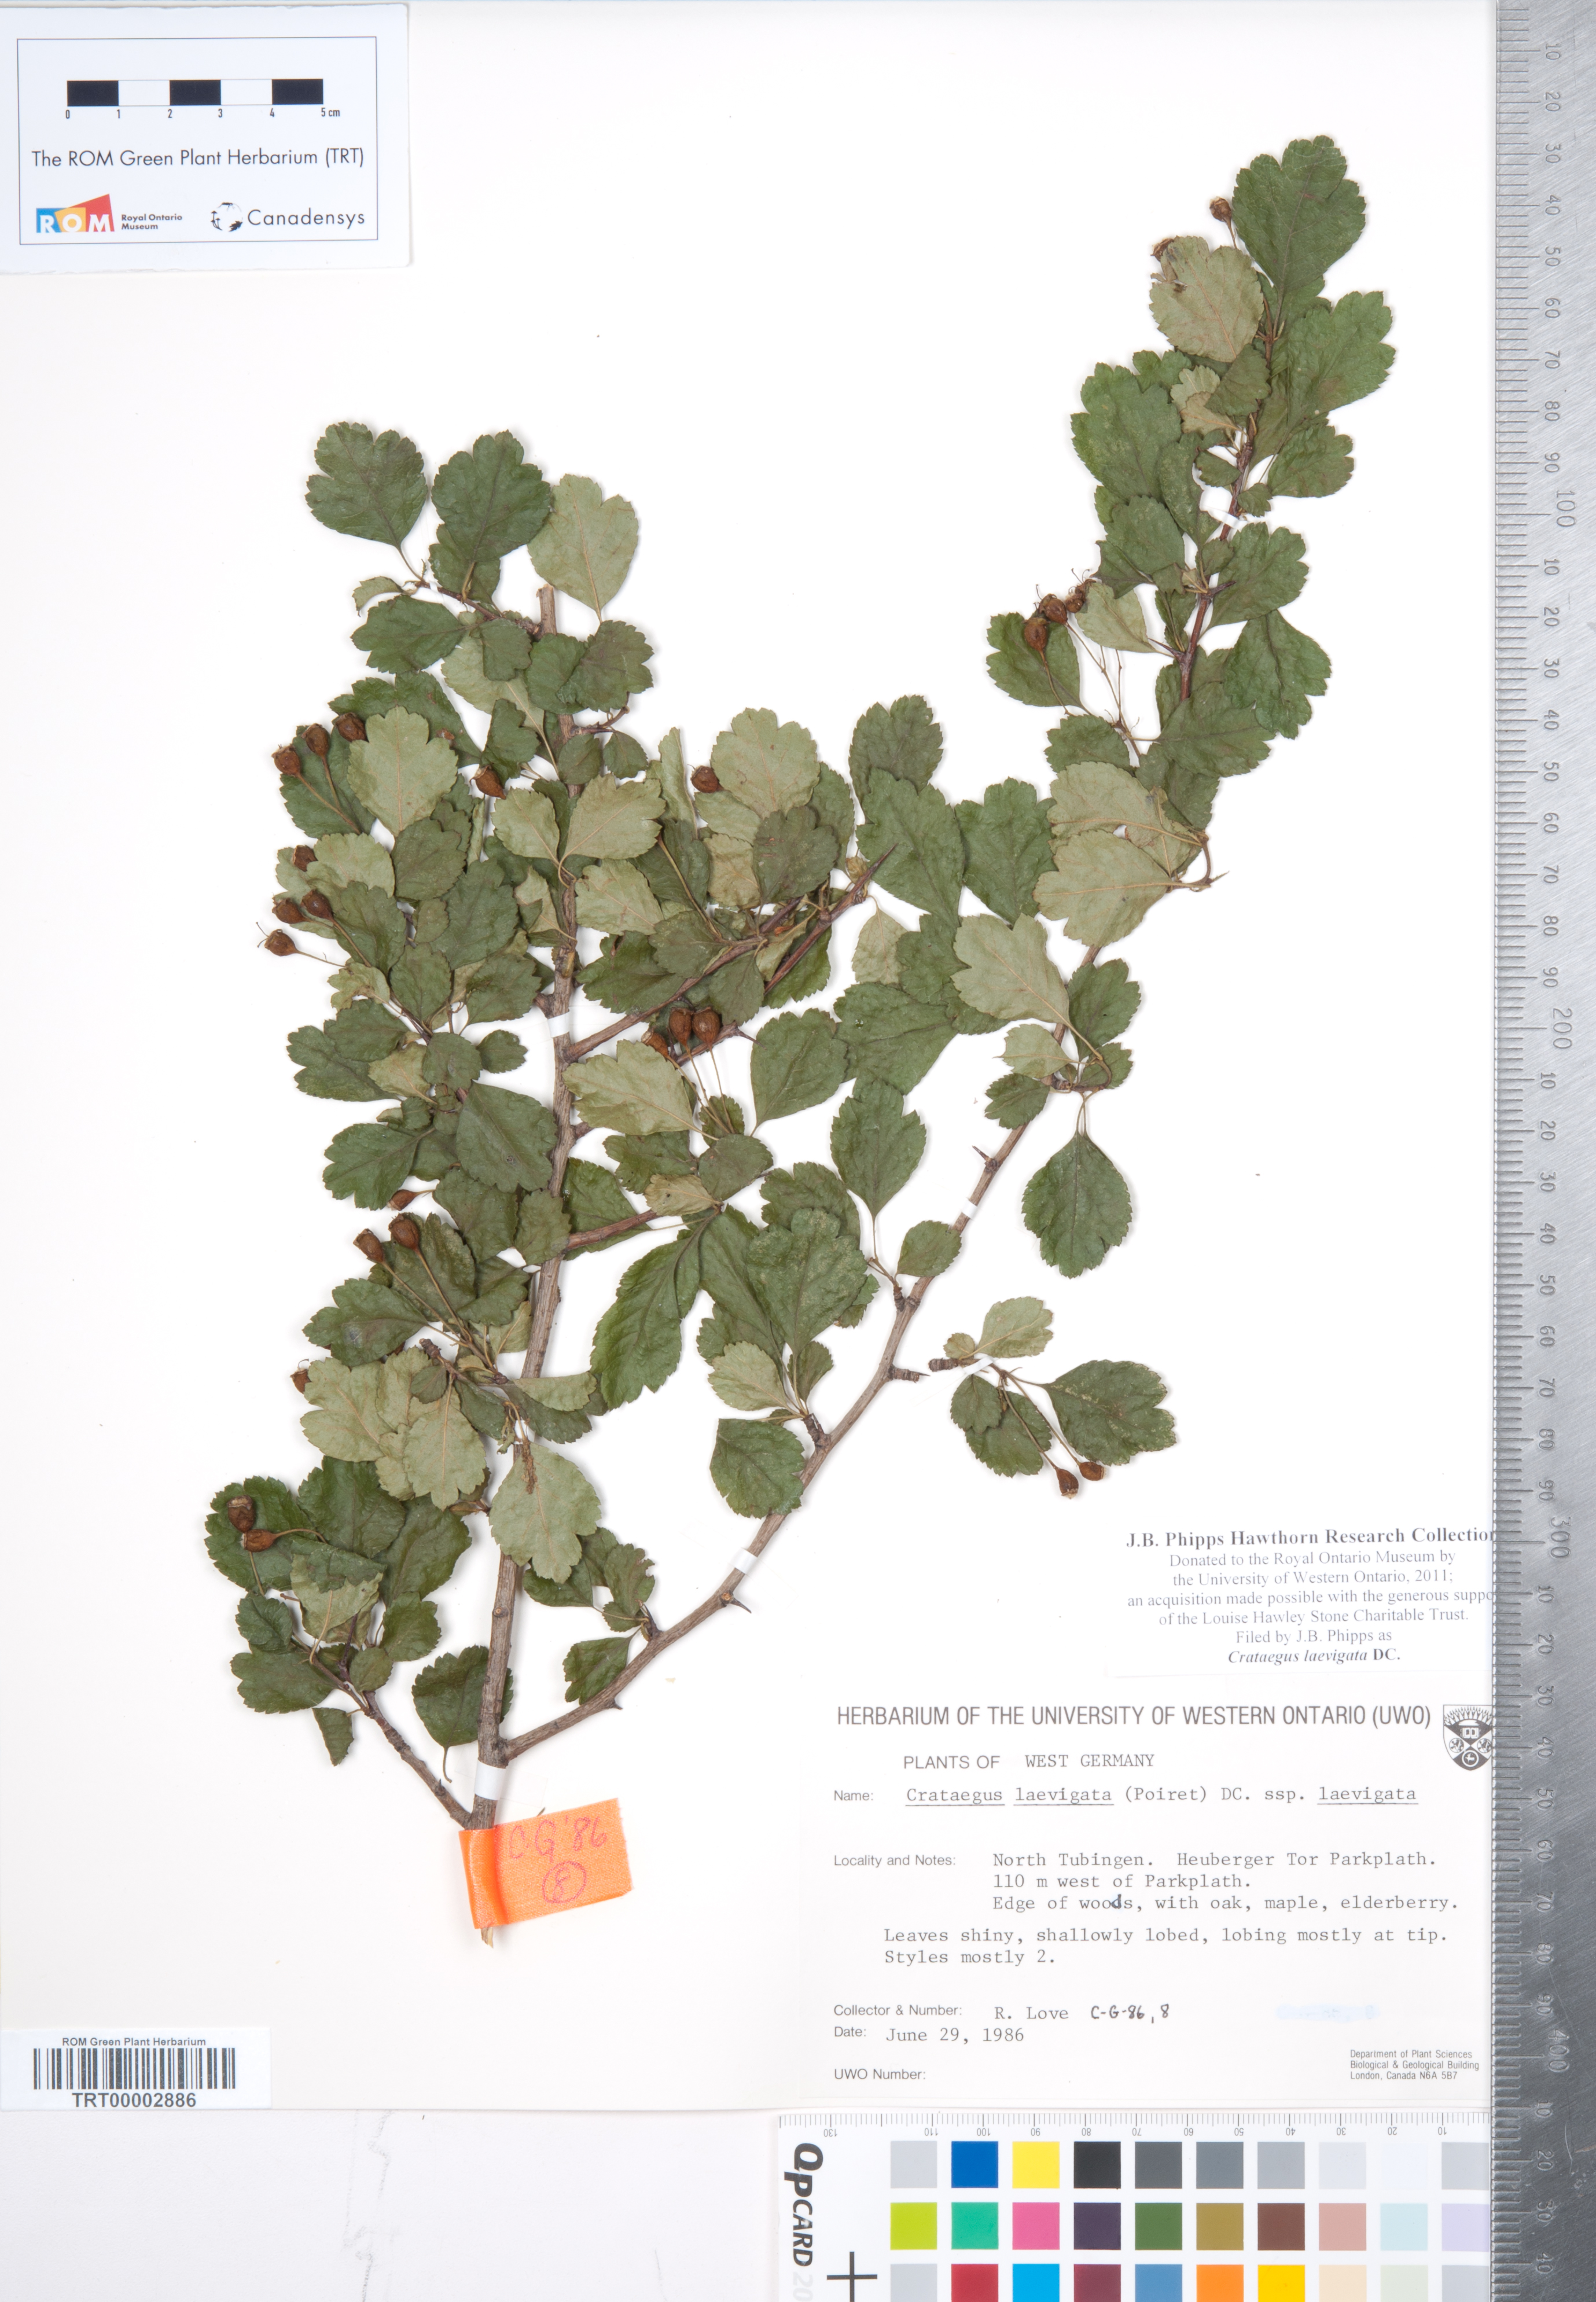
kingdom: Plantae
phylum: Tracheophyta
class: Magnoliopsida
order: Rosales
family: Rosaceae
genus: Crataegus
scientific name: Crataegus laevigata
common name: Midland hawthorn
